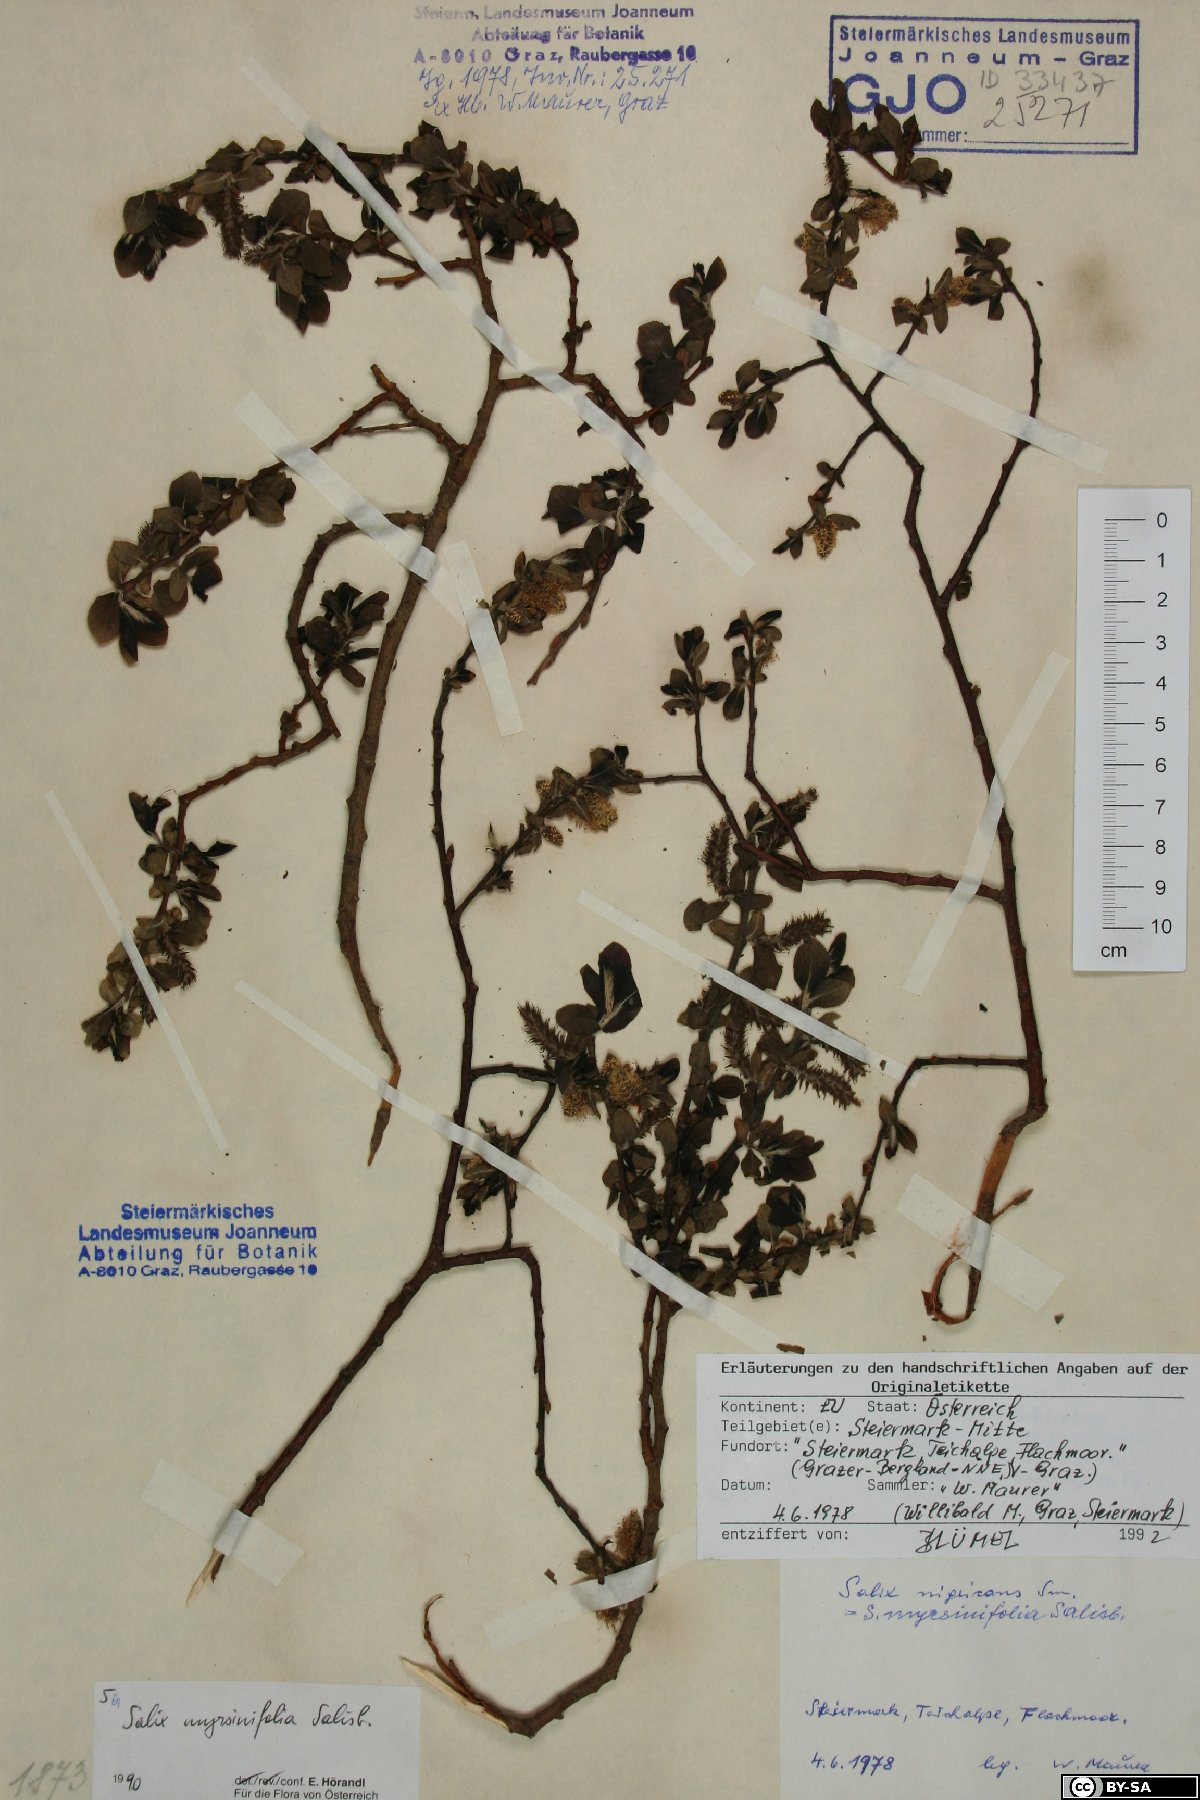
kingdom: Plantae
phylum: Tracheophyta
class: Magnoliopsida
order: Malpighiales
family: Salicaceae
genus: Salix
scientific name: Salix myrsinifolia
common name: Dark-leaved willow
